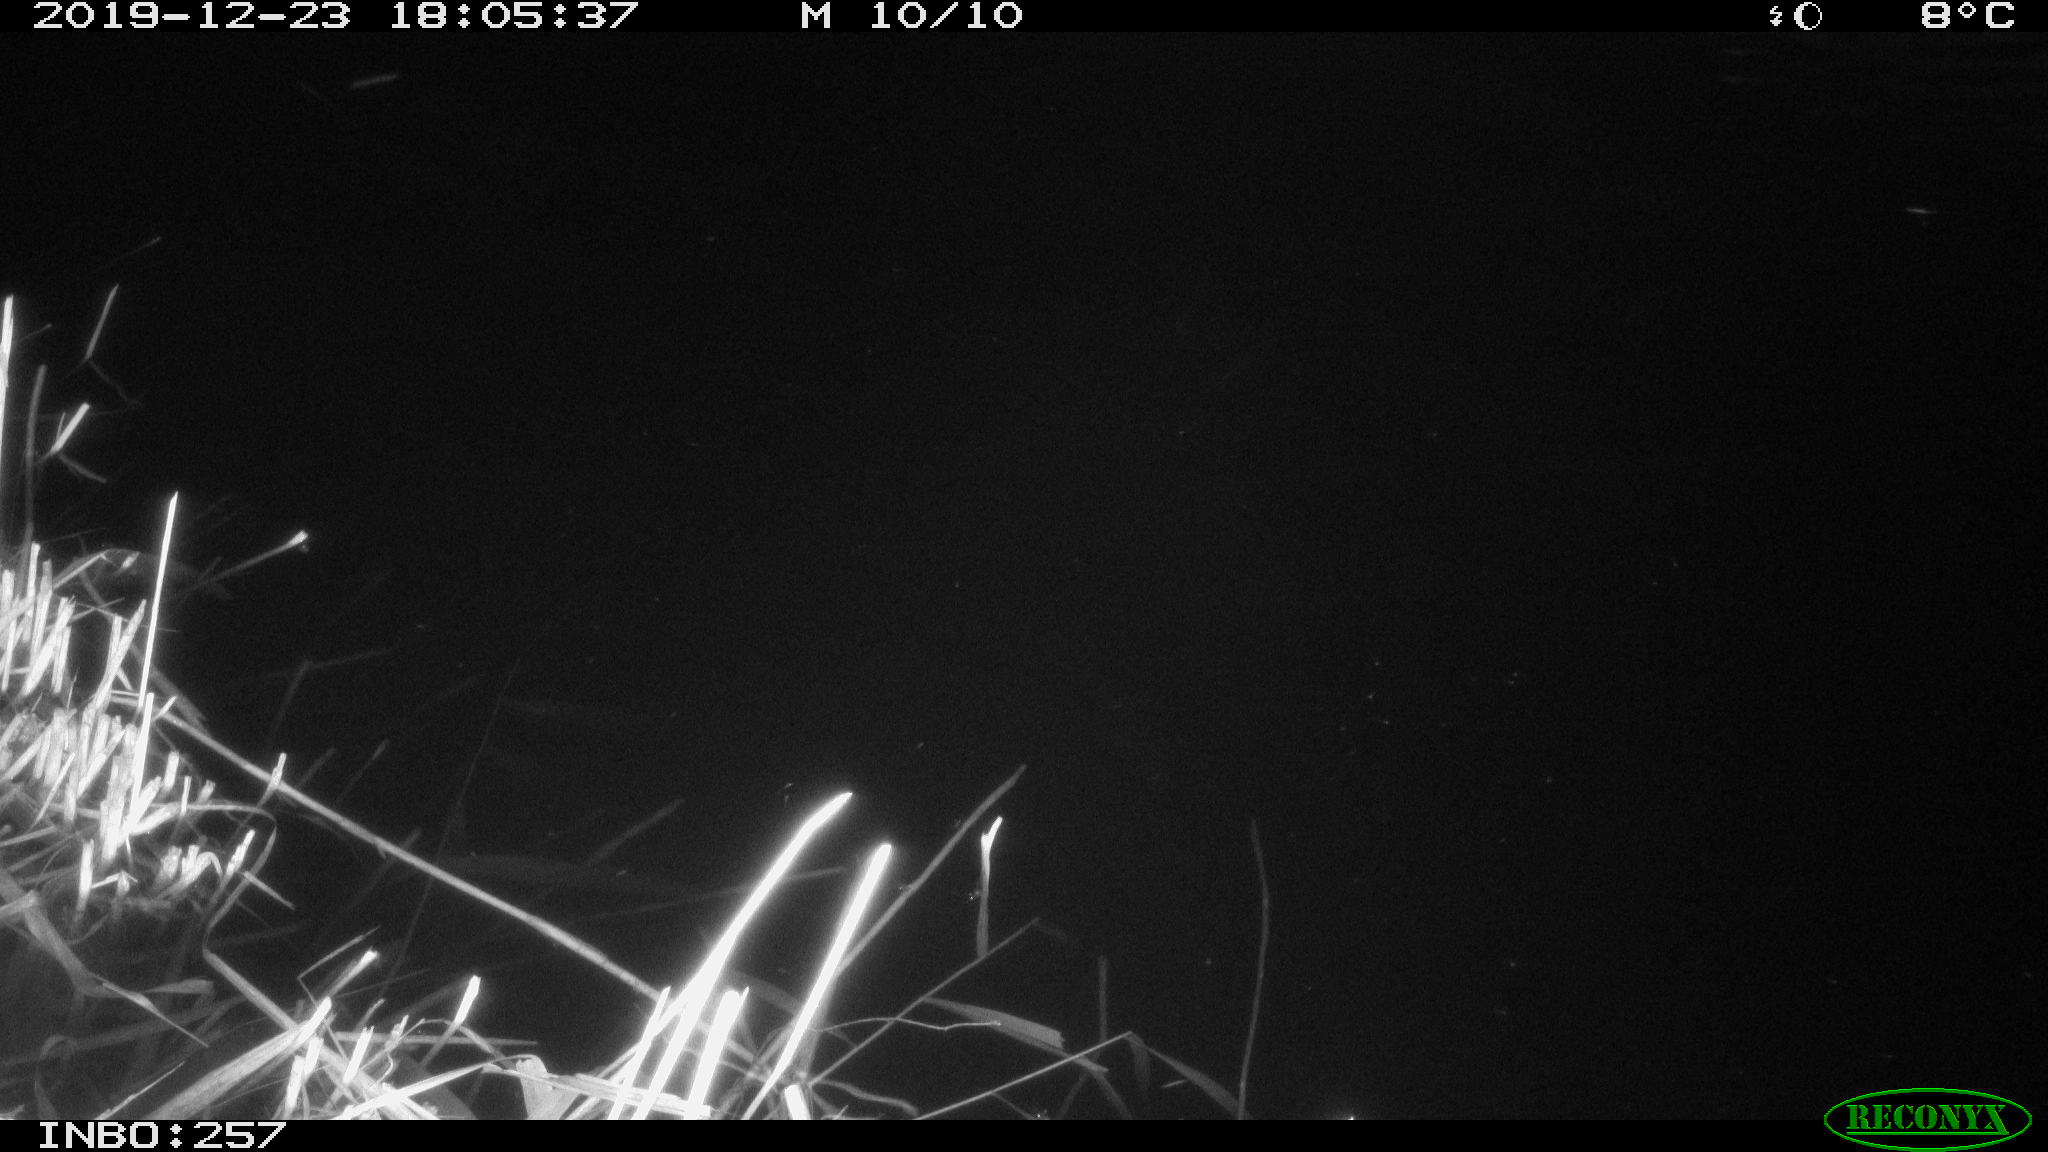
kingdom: Animalia
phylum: Chordata
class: Mammalia
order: Rodentia
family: Muridae
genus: Rattus
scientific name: Rattus norvegicus
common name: Brown rat
